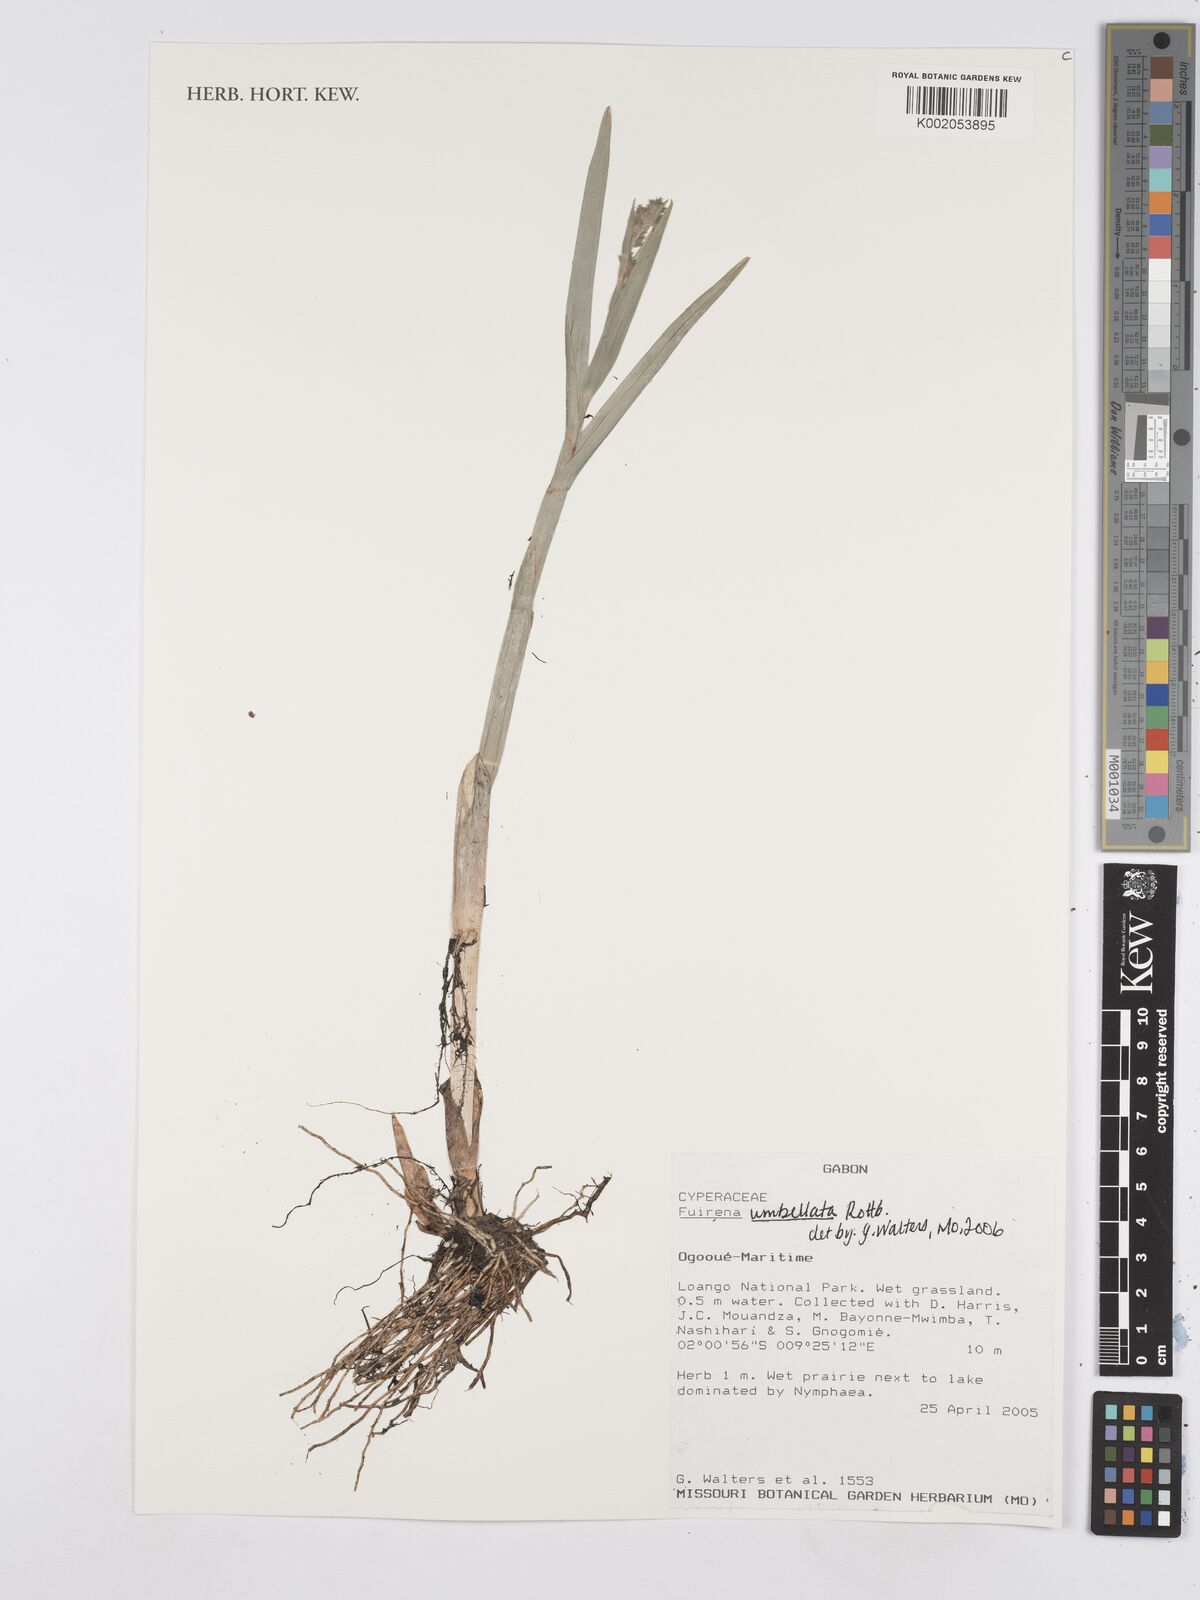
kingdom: Plantae
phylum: Tracheophyta
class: Liliopsida
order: Poales
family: Cyperaceae
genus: Fuirena
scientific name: Fuirena umbellata
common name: Yefen
